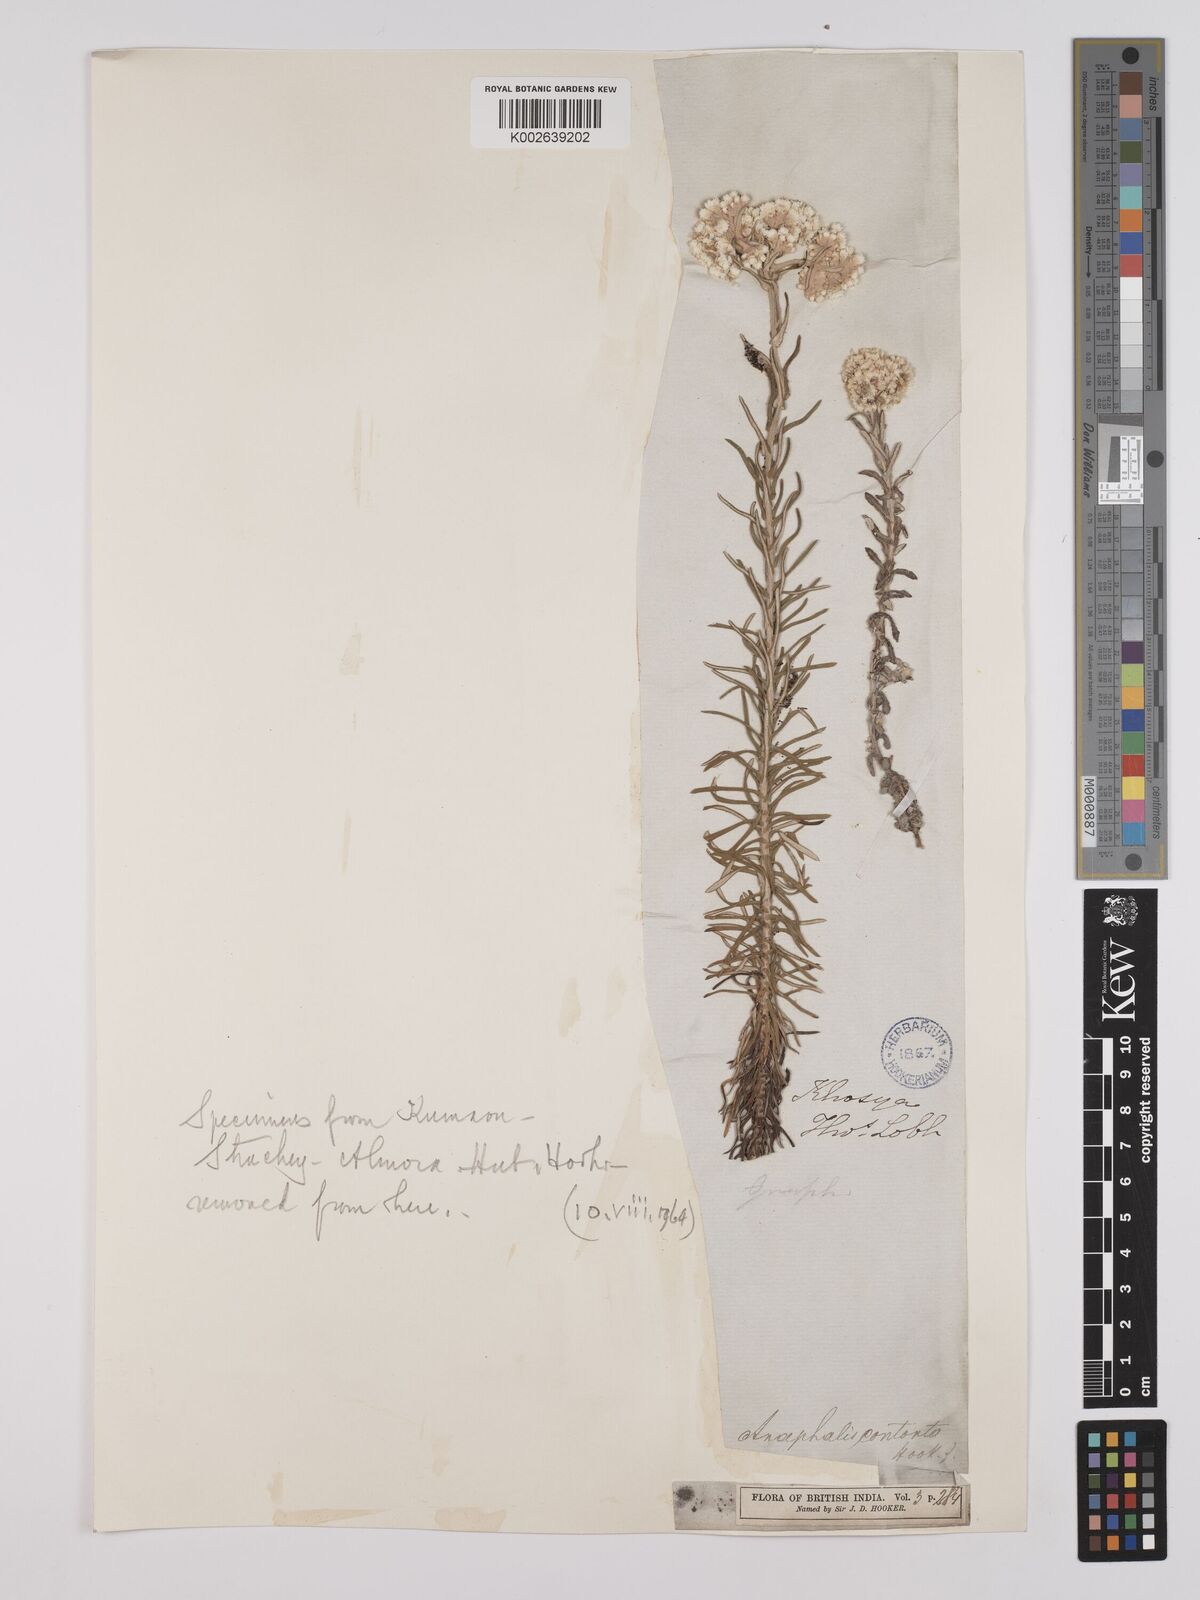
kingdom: Plantae
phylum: Tracheophyta
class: Magnoliopsida
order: Asterales
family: Asteraceae
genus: Anaphalis
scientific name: Anaphalis contorta
